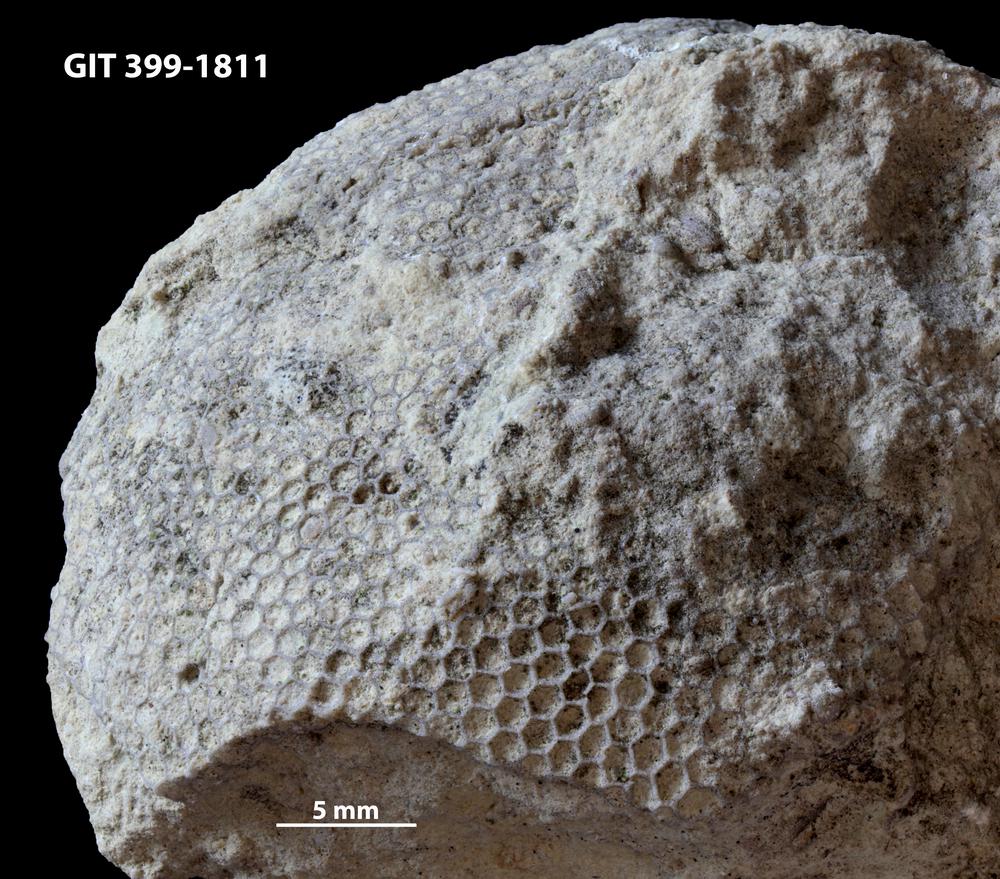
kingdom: Plantae
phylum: Chlorophyta
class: Ulvophyceae
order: Cyclocrinales
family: Cyclocrinaceae
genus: Mastopora
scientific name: Mastopora concava
